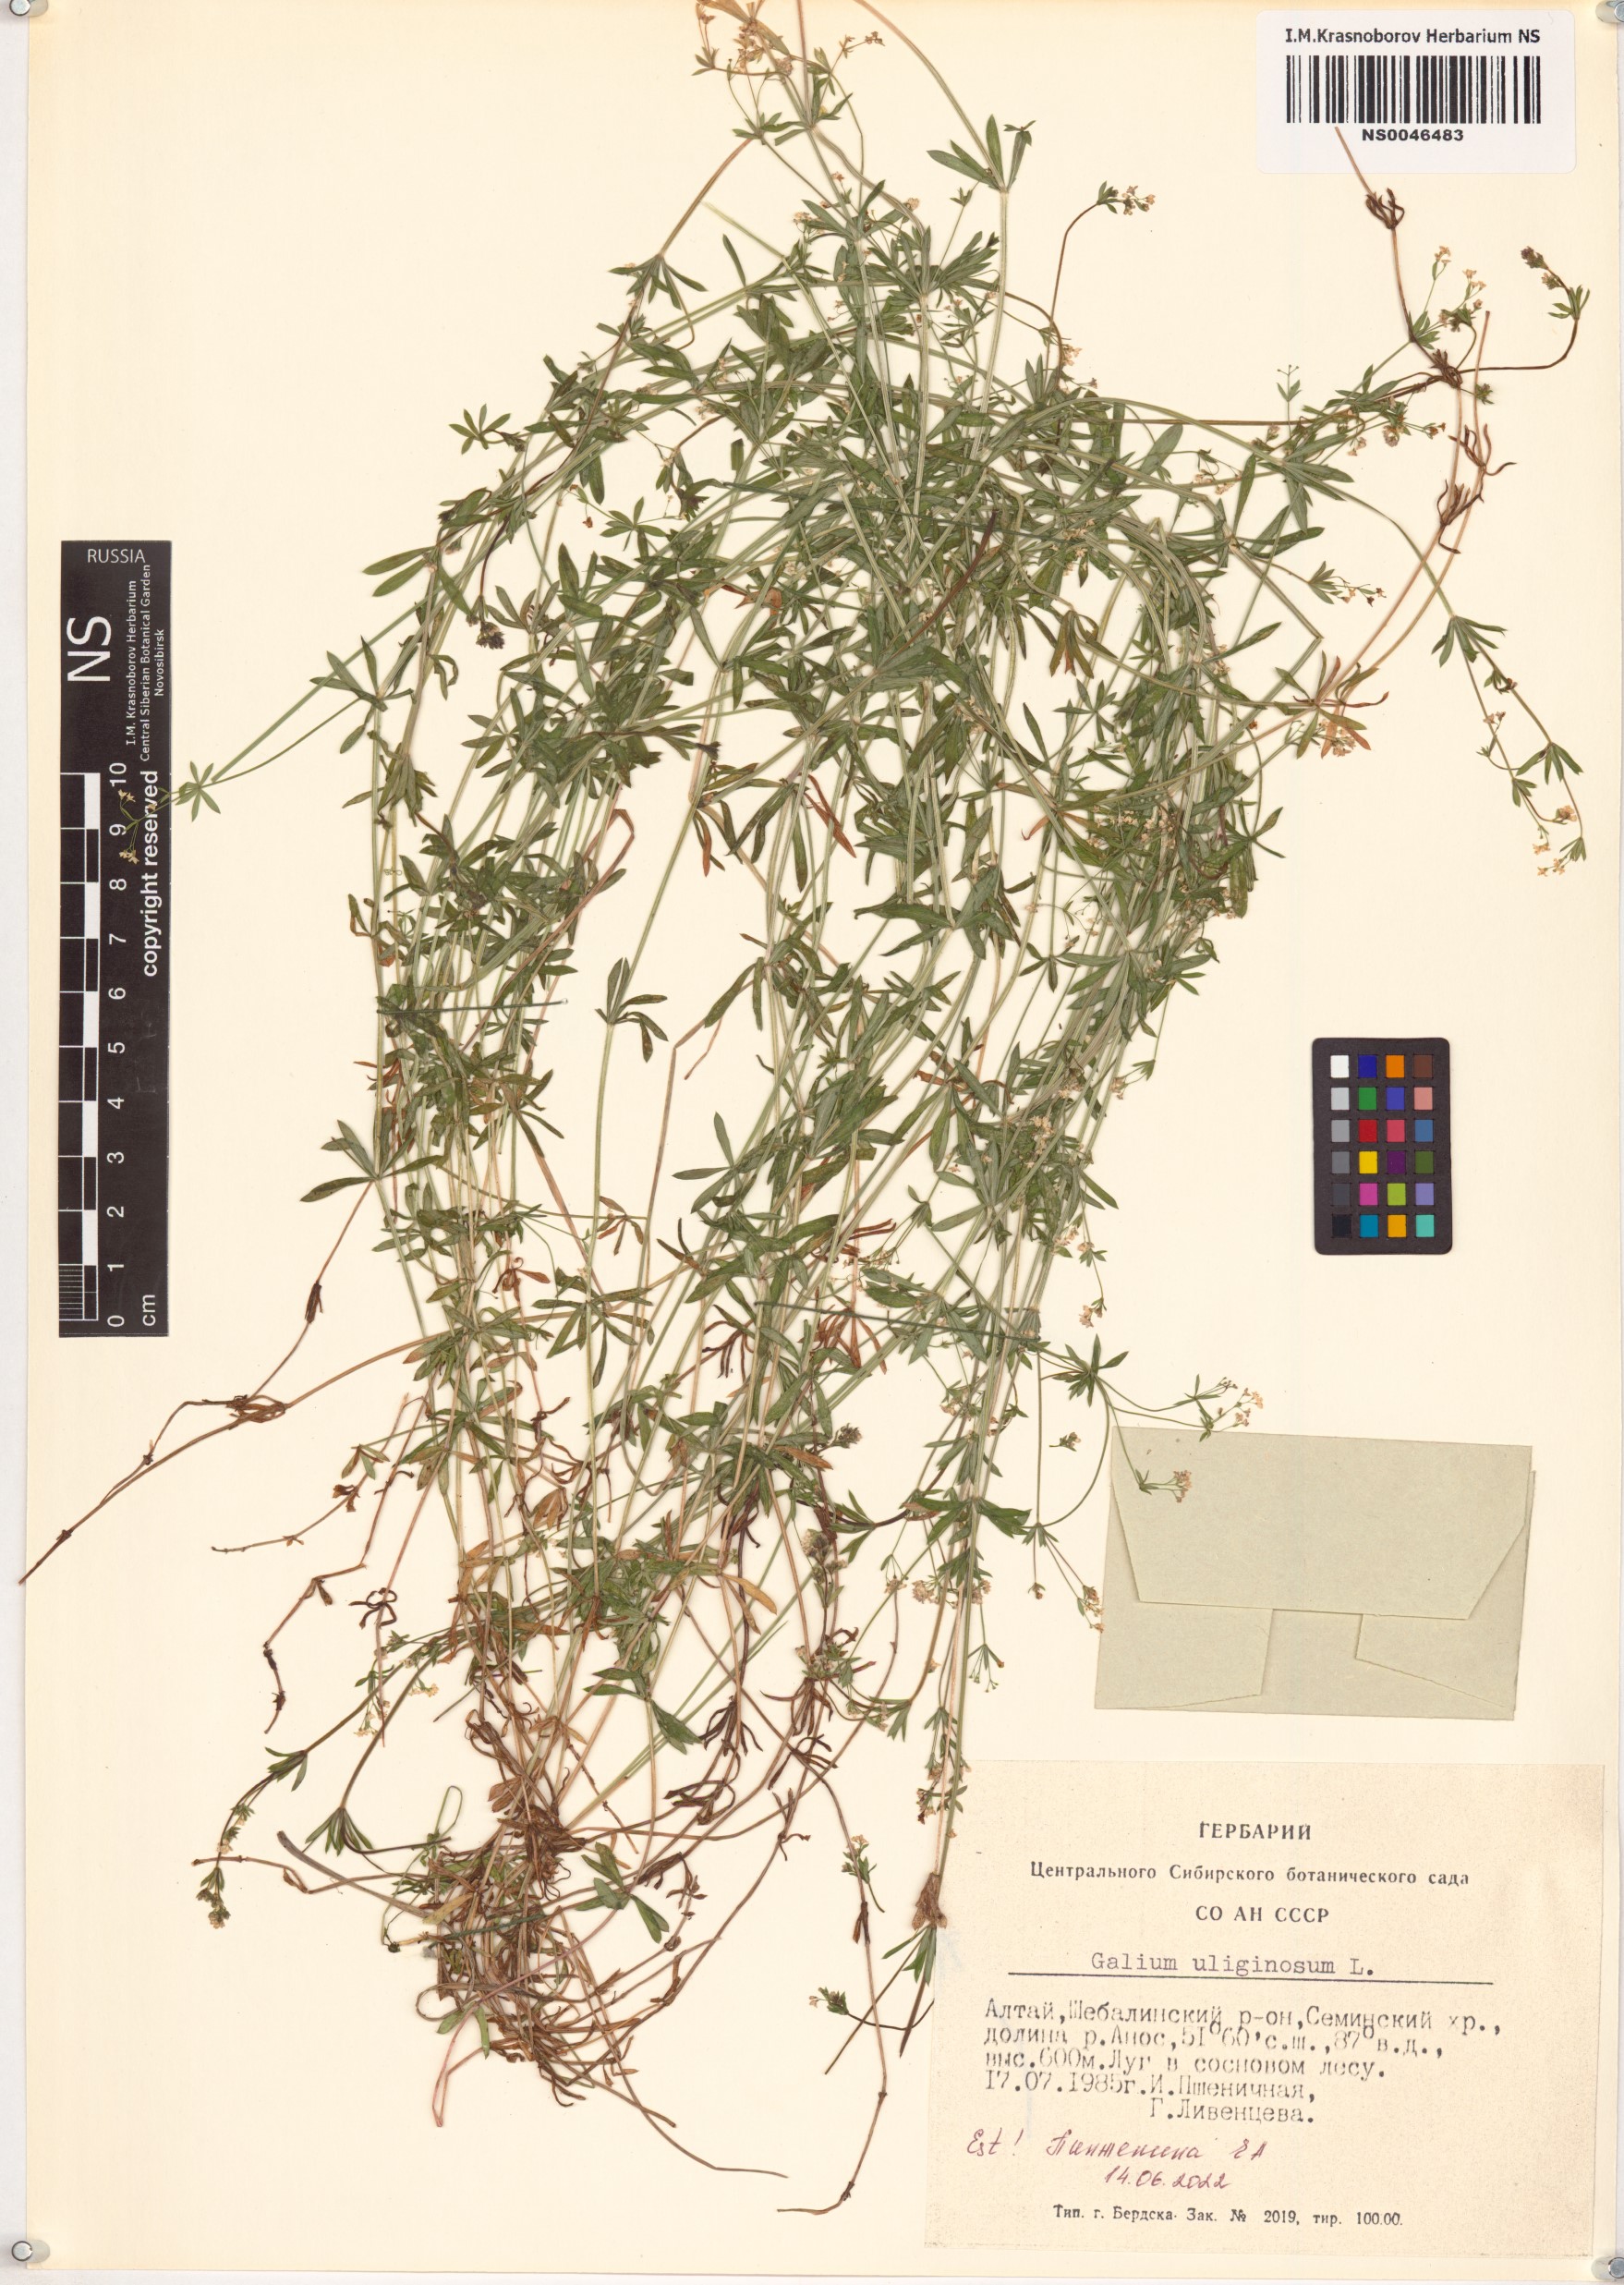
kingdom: Plantae
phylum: Tracheophyta
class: Magnoliopsida
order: Gentianales
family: Rubiaceae
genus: Galium
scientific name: Galium uliginosum
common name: Fen bedstraw
